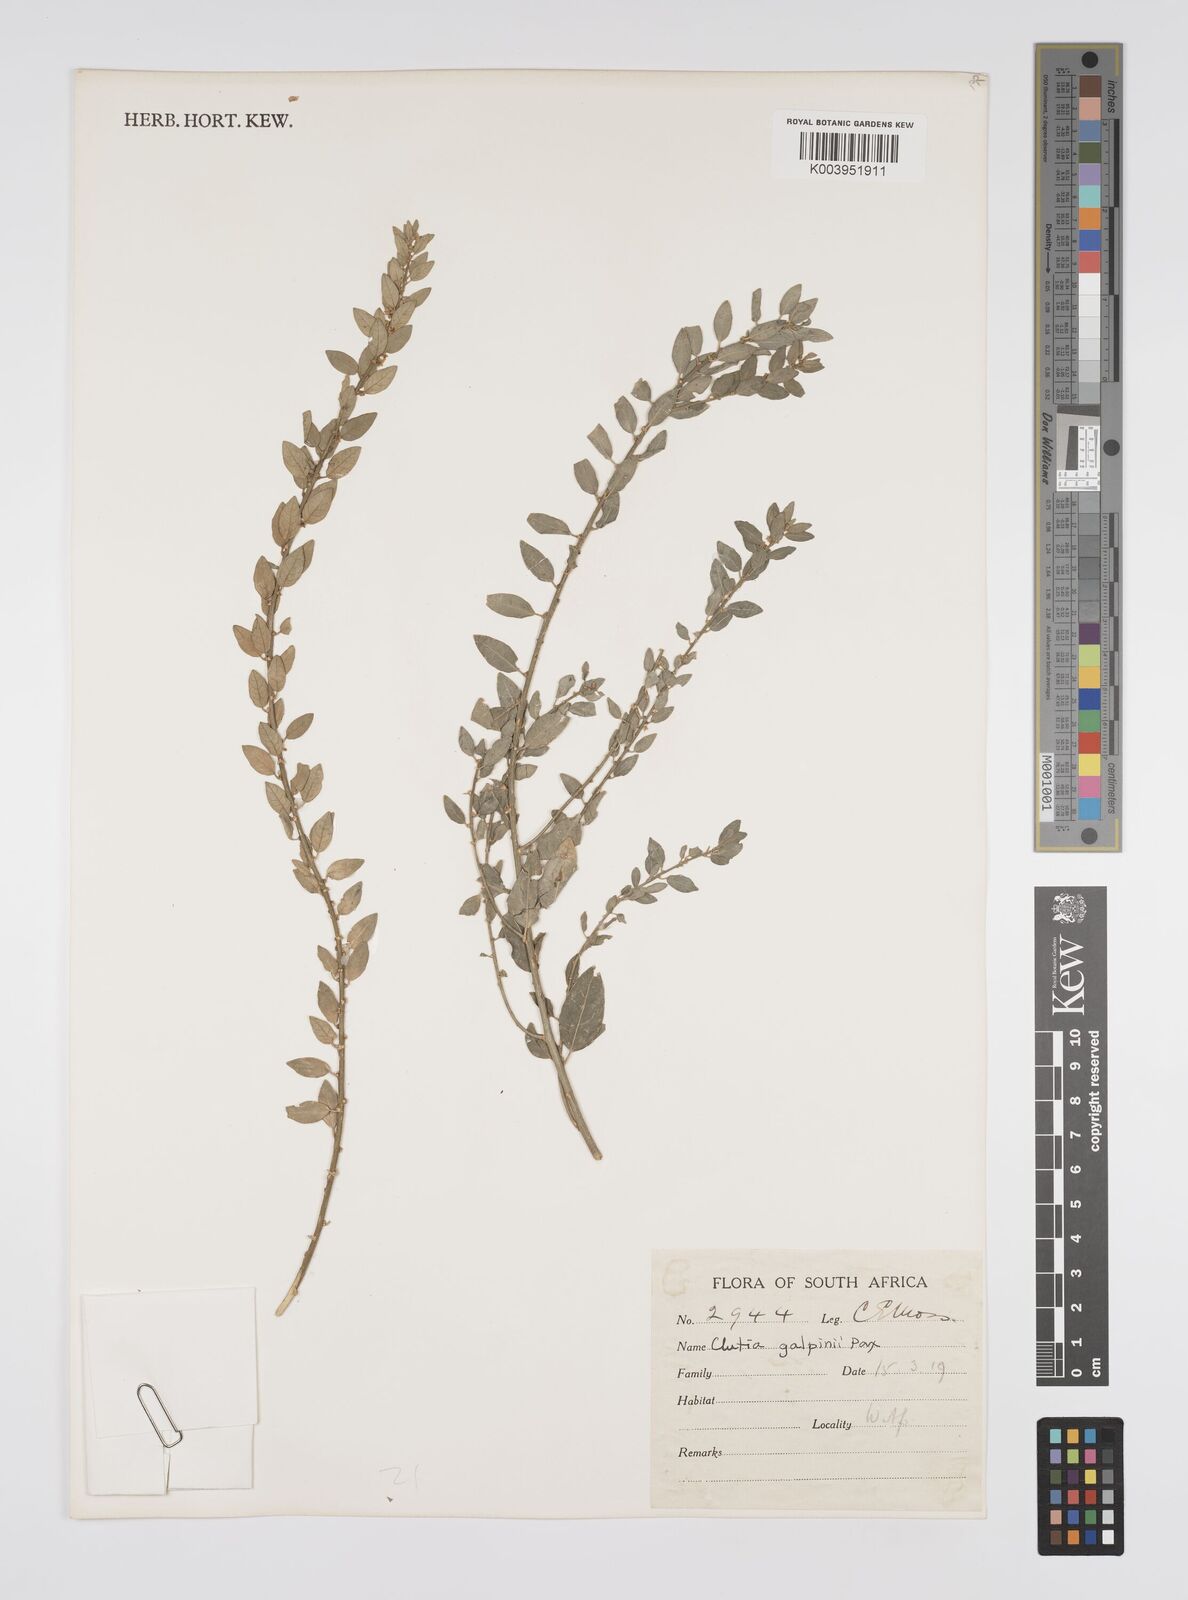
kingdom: Plantae
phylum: Tracheophyta
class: Magnoliopsida
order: Malpighiales
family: Peraceae
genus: Clutia
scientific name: Clutia galpinii
